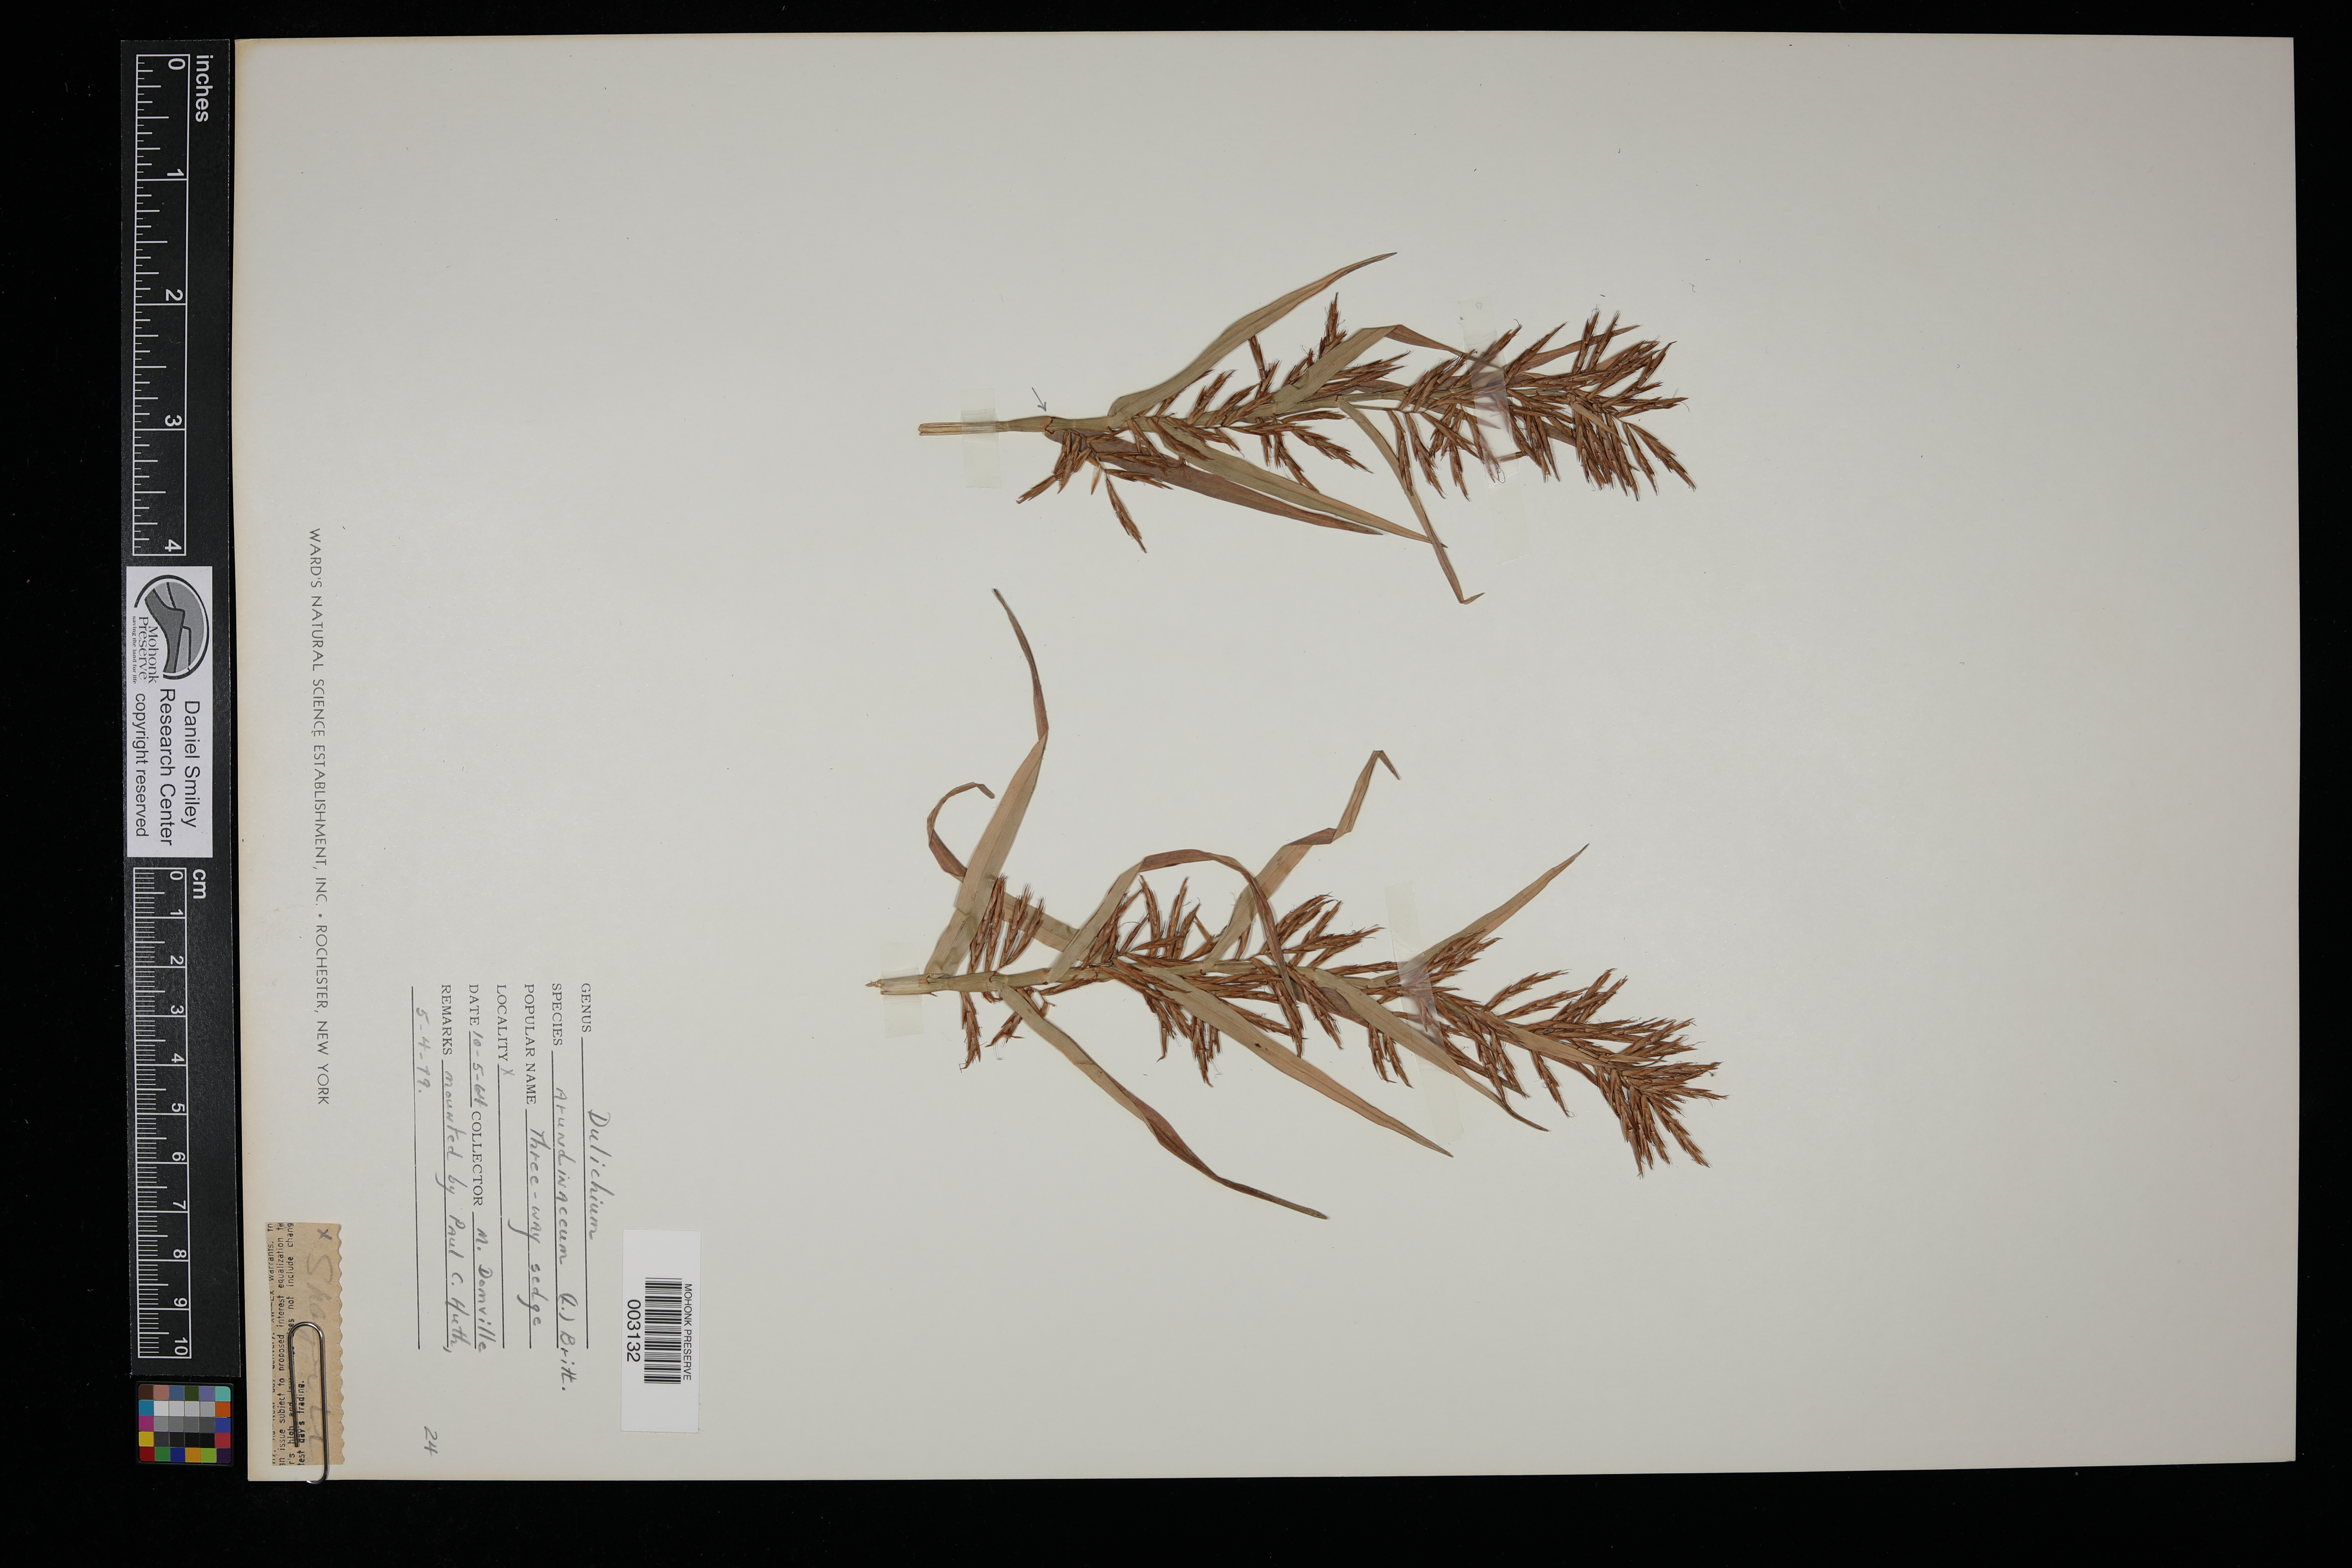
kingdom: Plantae
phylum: Tracheophyta
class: Liliopsida
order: Poales
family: Cyperaceae
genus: Dulichium
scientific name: Dulichium arundinaceum
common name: Three-way sedge
